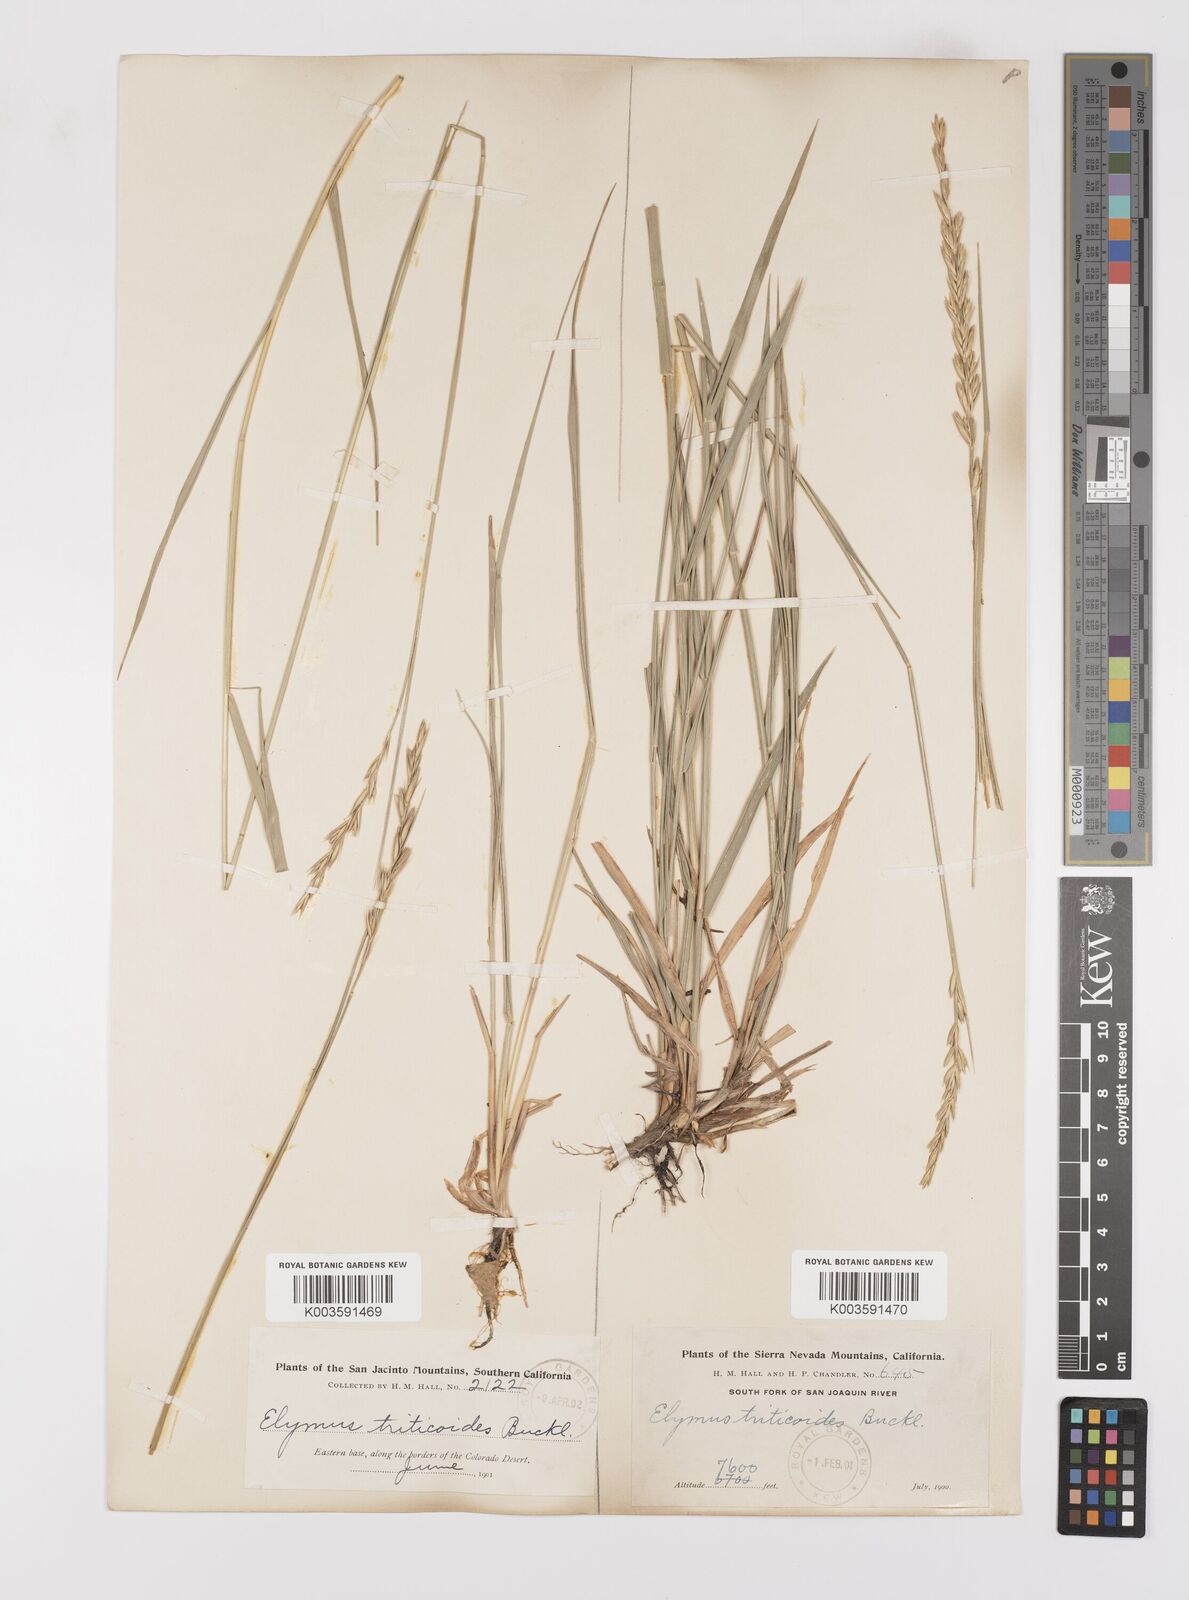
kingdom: Plantae
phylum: Tracheophyta
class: Liliopsida
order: Poales
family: Poaceae
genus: Leymus
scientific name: Leymus triticoides
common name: Beardless wild rye
